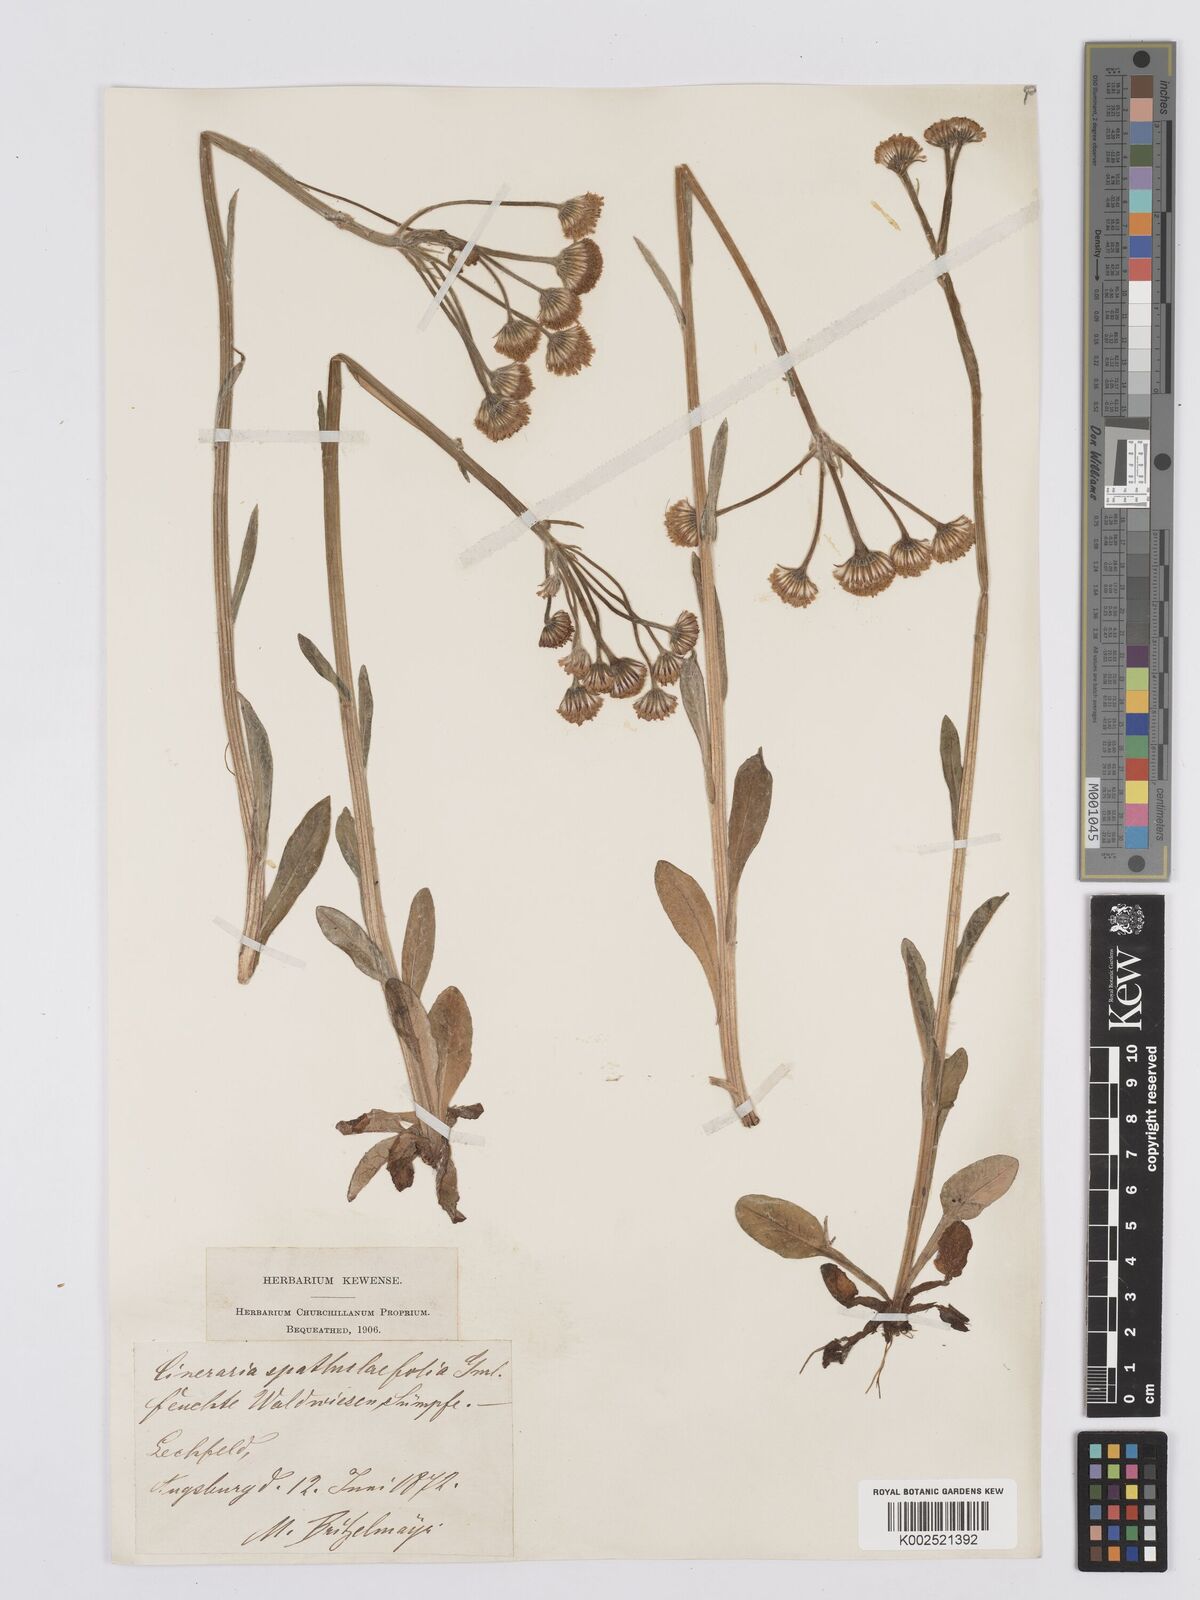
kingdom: Plantae
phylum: Tracheophyta
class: Magnoliopsida
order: Asterales
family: Asteraceae
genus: Tephroseris
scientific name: Tephroseris helenitis
